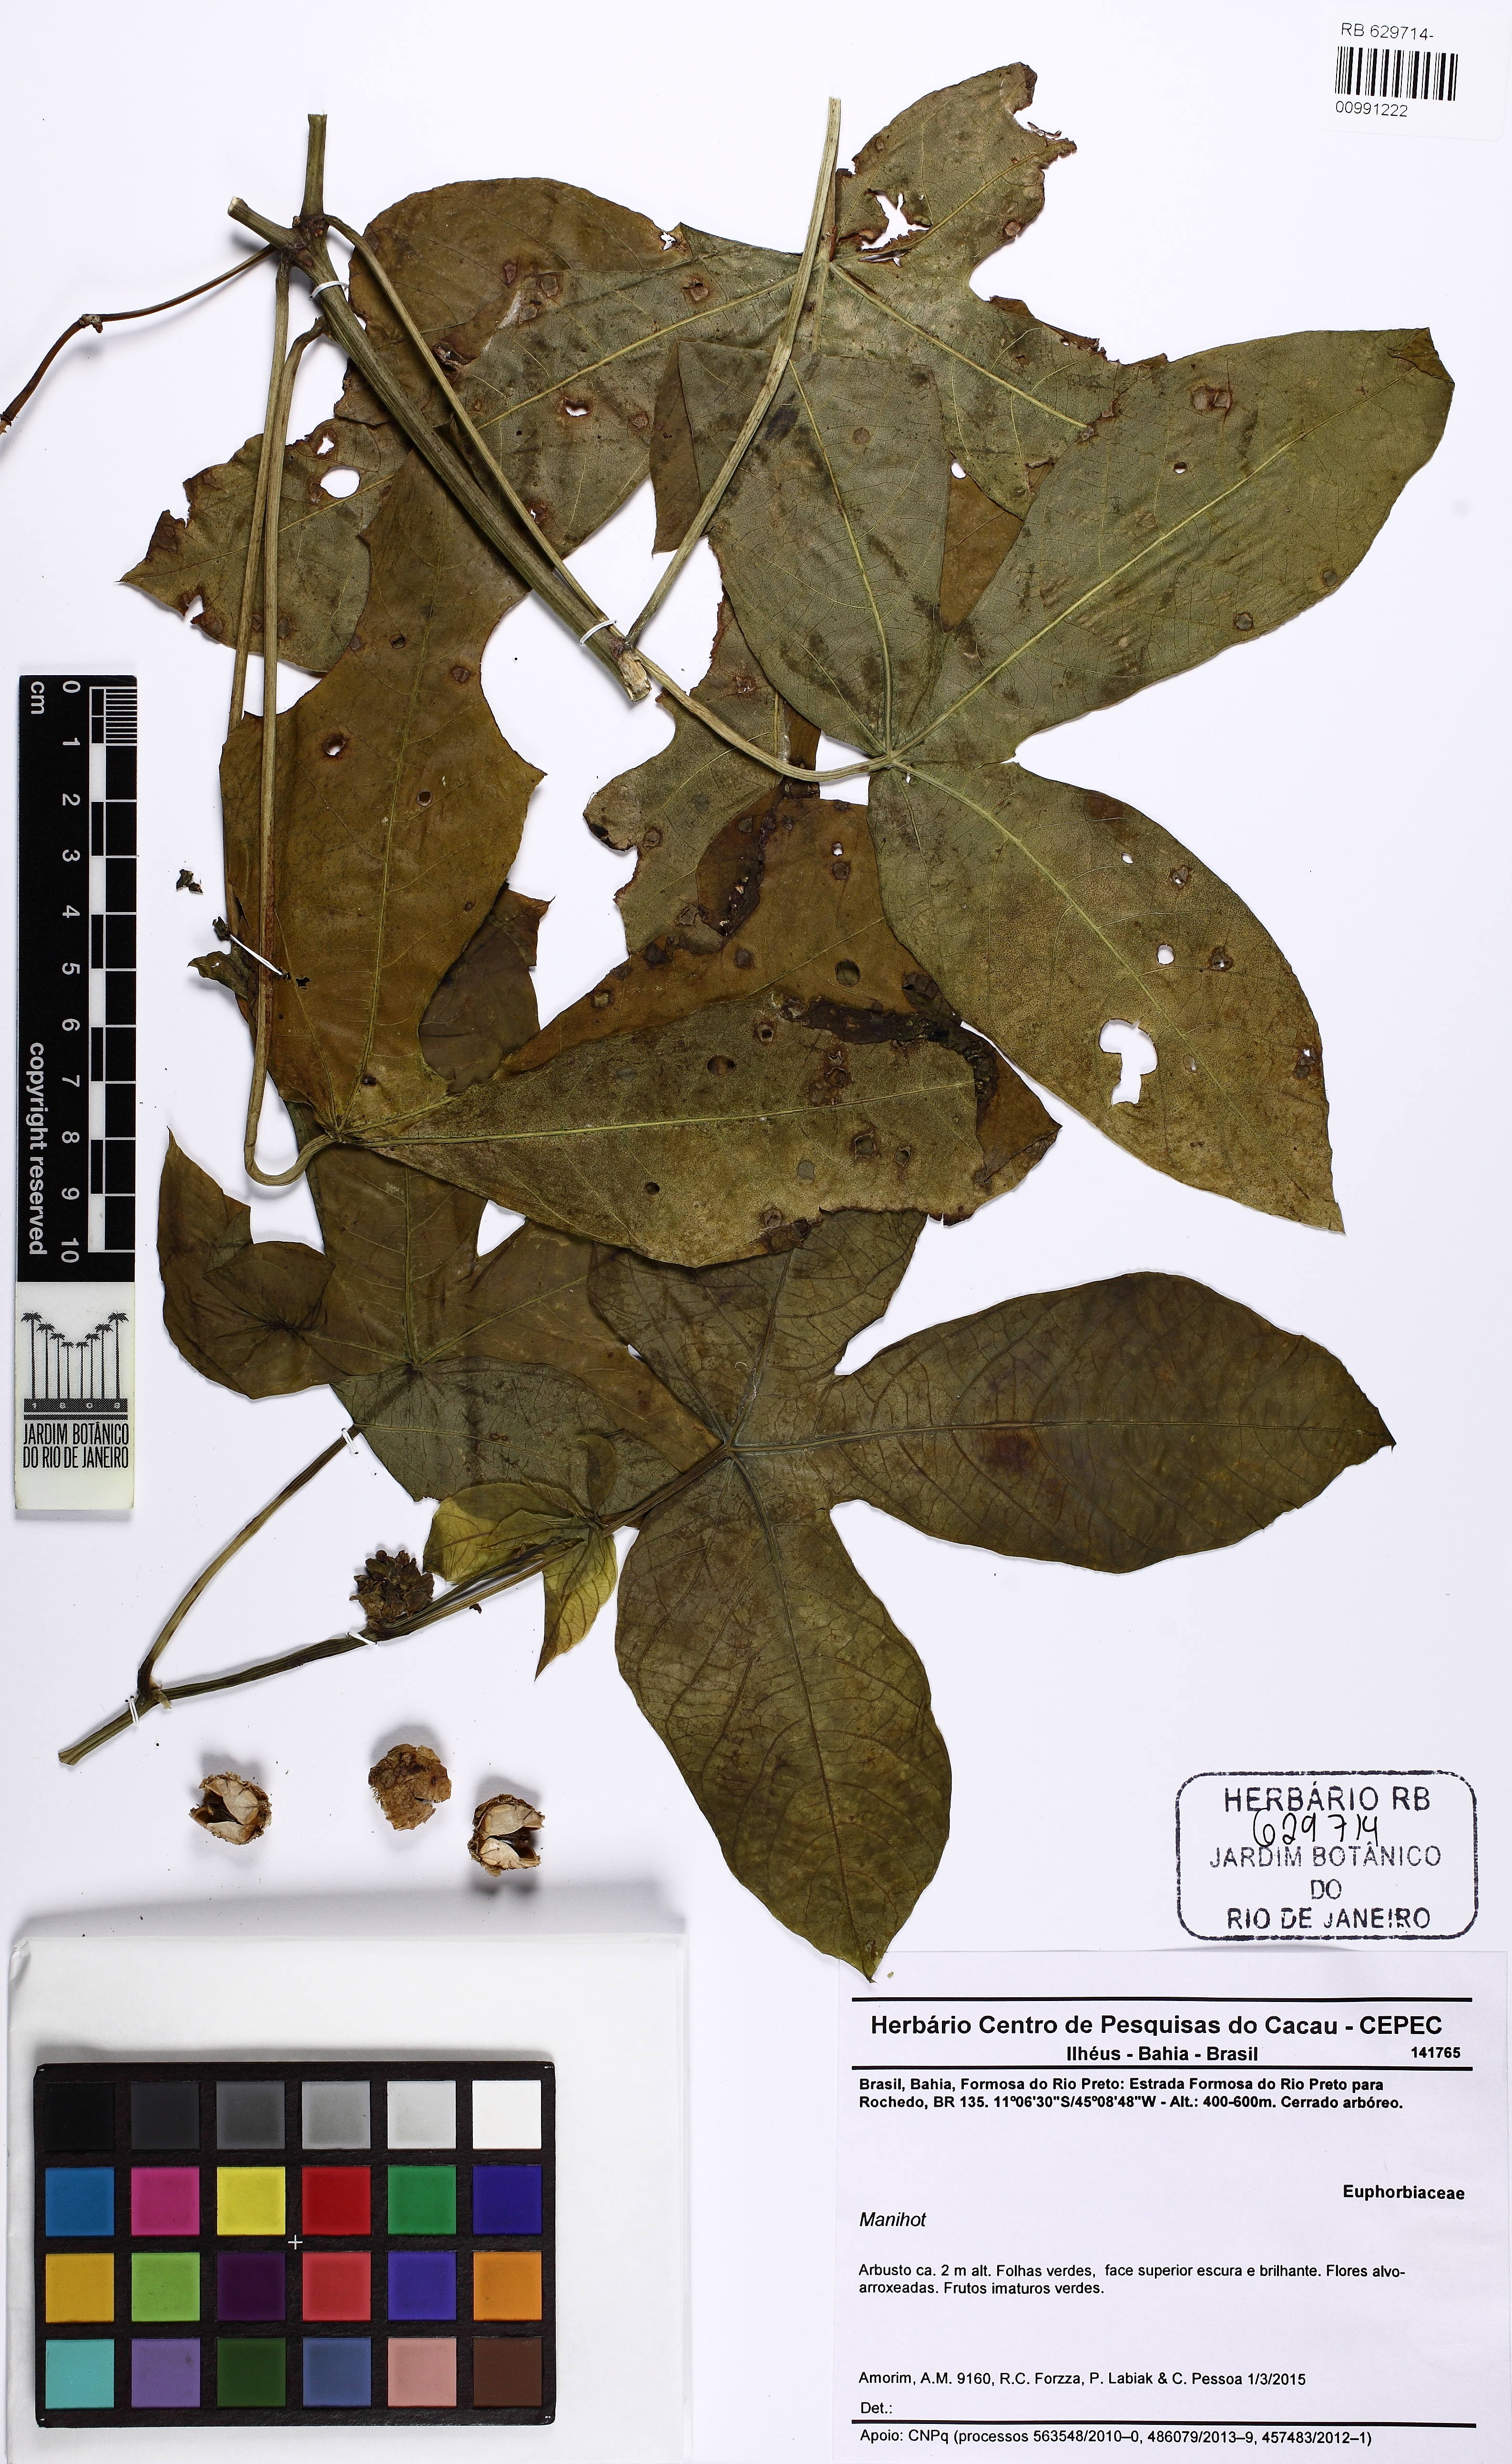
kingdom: Plantae
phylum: Tracheophyta
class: Magnoliopsida
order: Malpighiales
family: Euphorbiaceae
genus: Manihot
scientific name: Manihot
